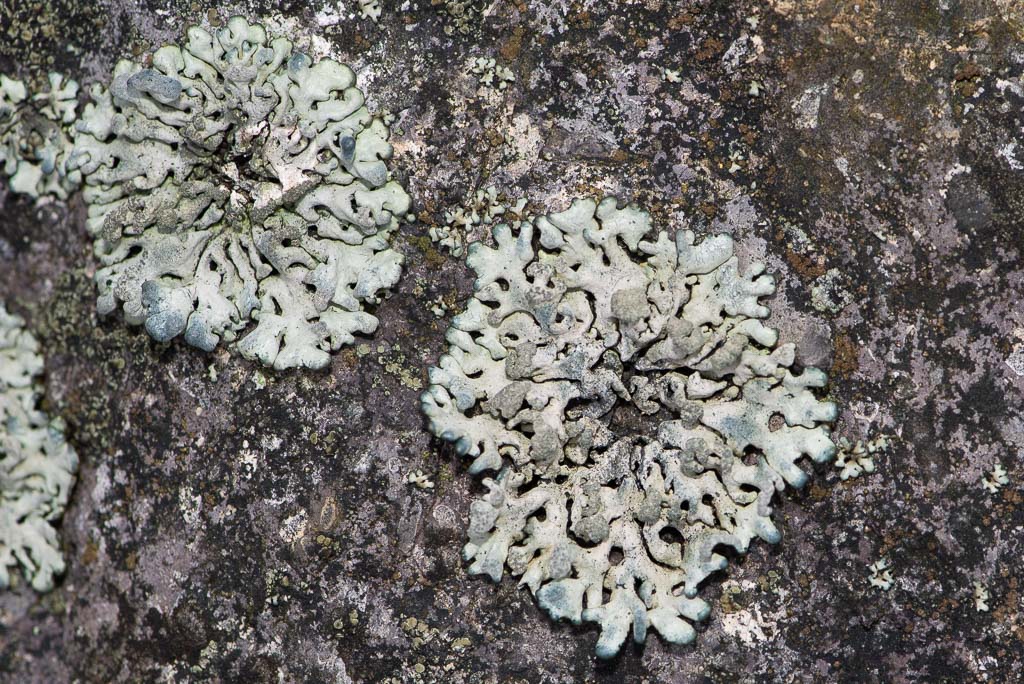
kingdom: Fungi
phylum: Ascomycota
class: Lecanoromycetes
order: Lecanorales
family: Parmeliaceae
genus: Hypogymnia
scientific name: Hypogymnia tubulosa
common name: finger-kvistlav
